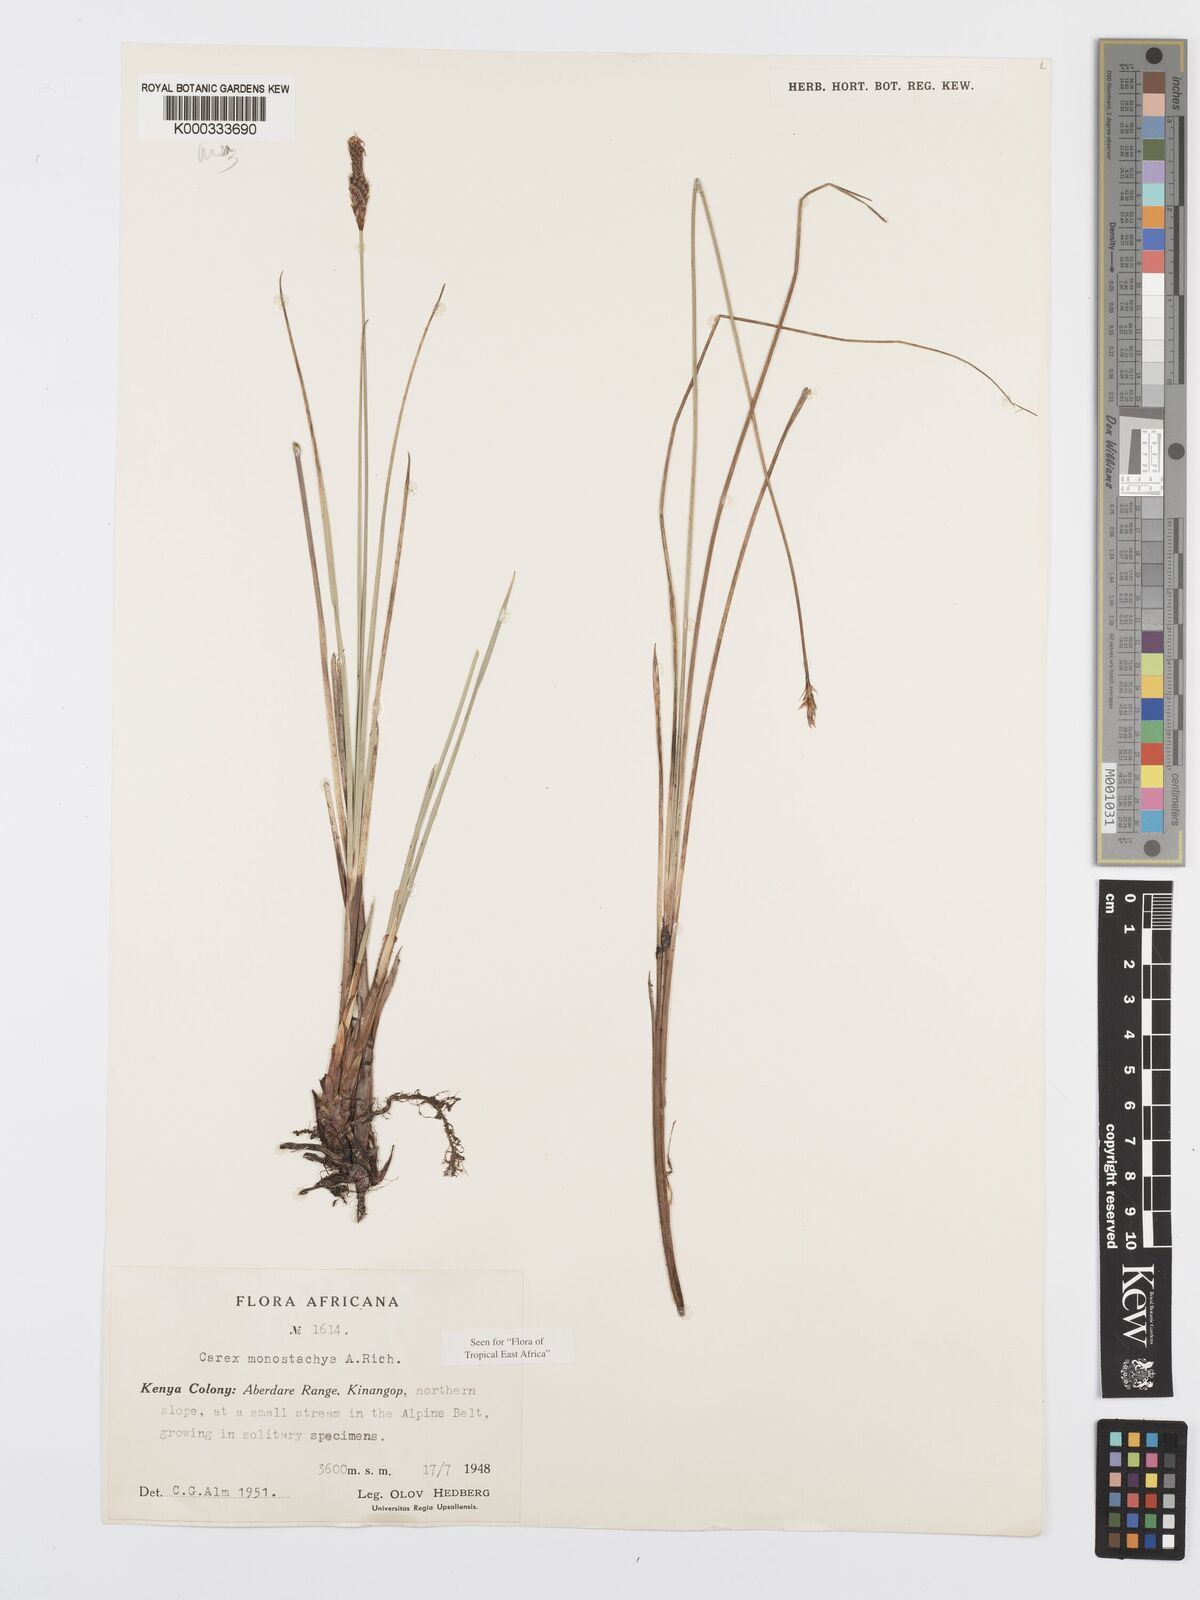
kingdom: Plantae
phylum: Tracheophyta
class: Liliopsida
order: Poales
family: Cyperaceae
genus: Carex
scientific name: Carex monostachya
